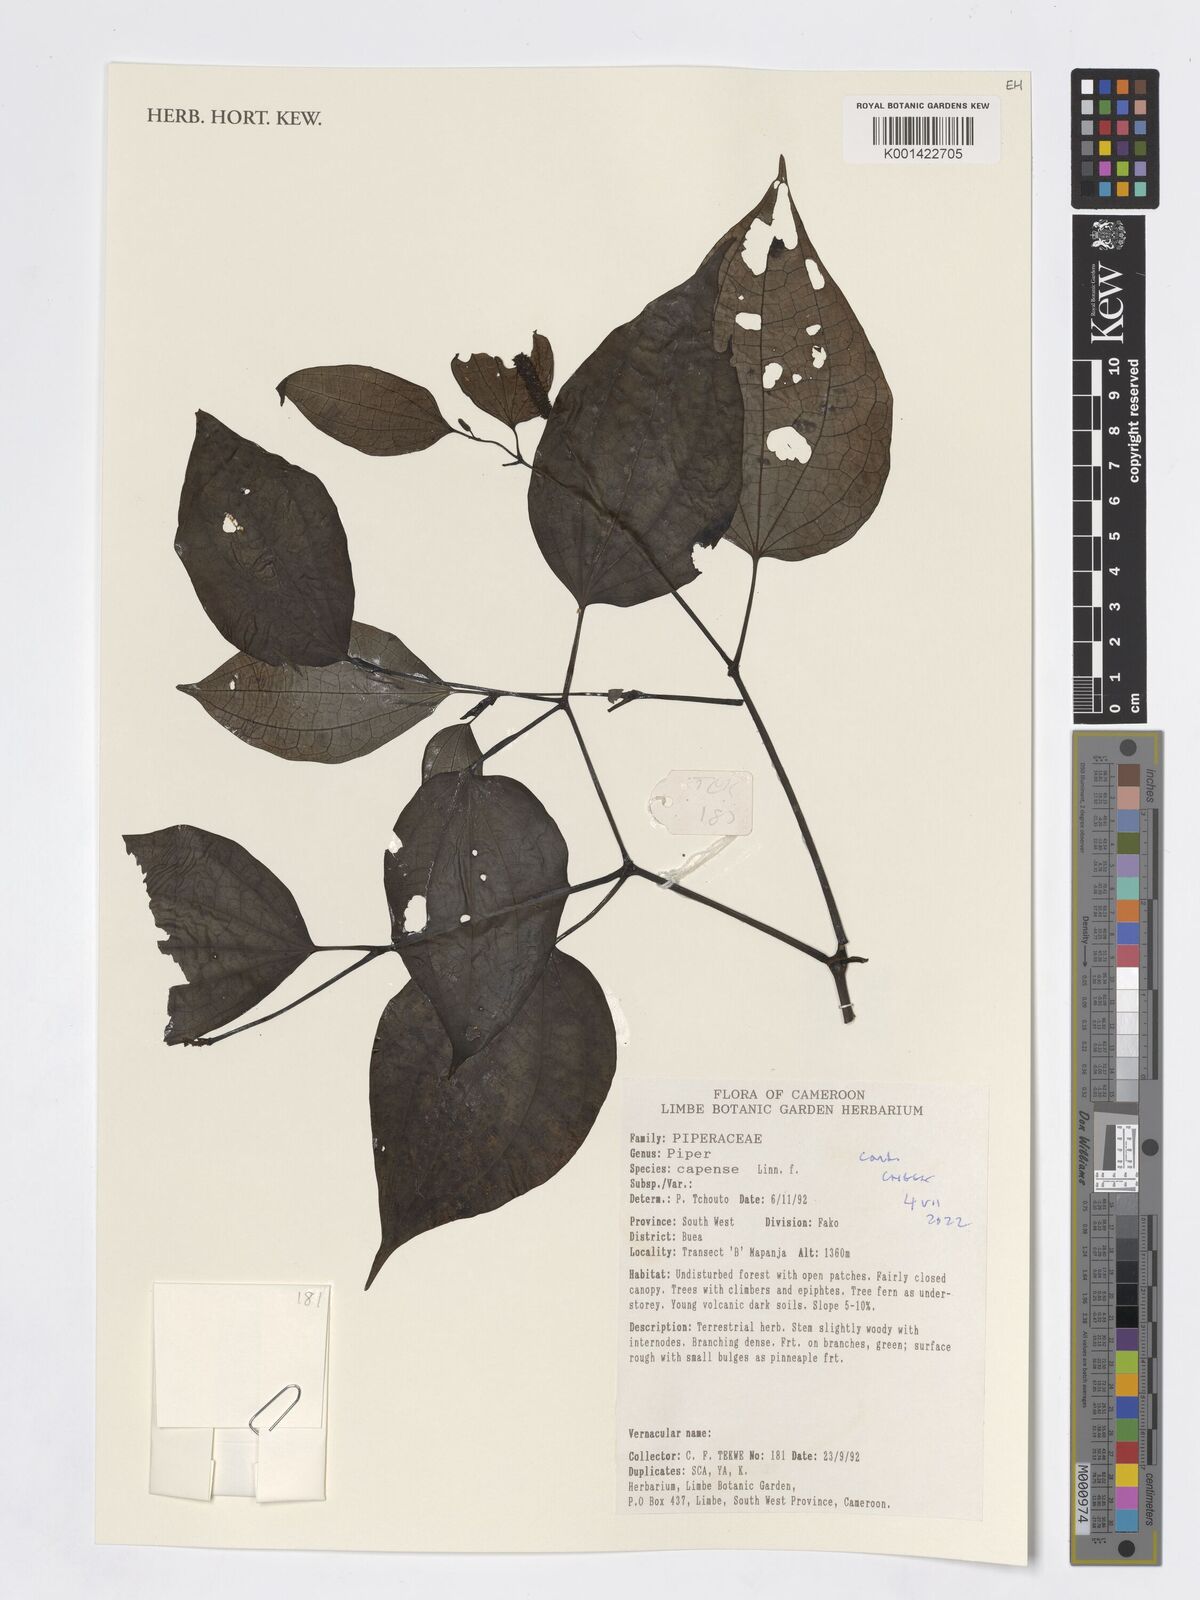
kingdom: Plantae
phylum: Tracheophyta
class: Magnoliopsida
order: Piperales
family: Piperaceae
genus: Piper
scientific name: Piper capense
